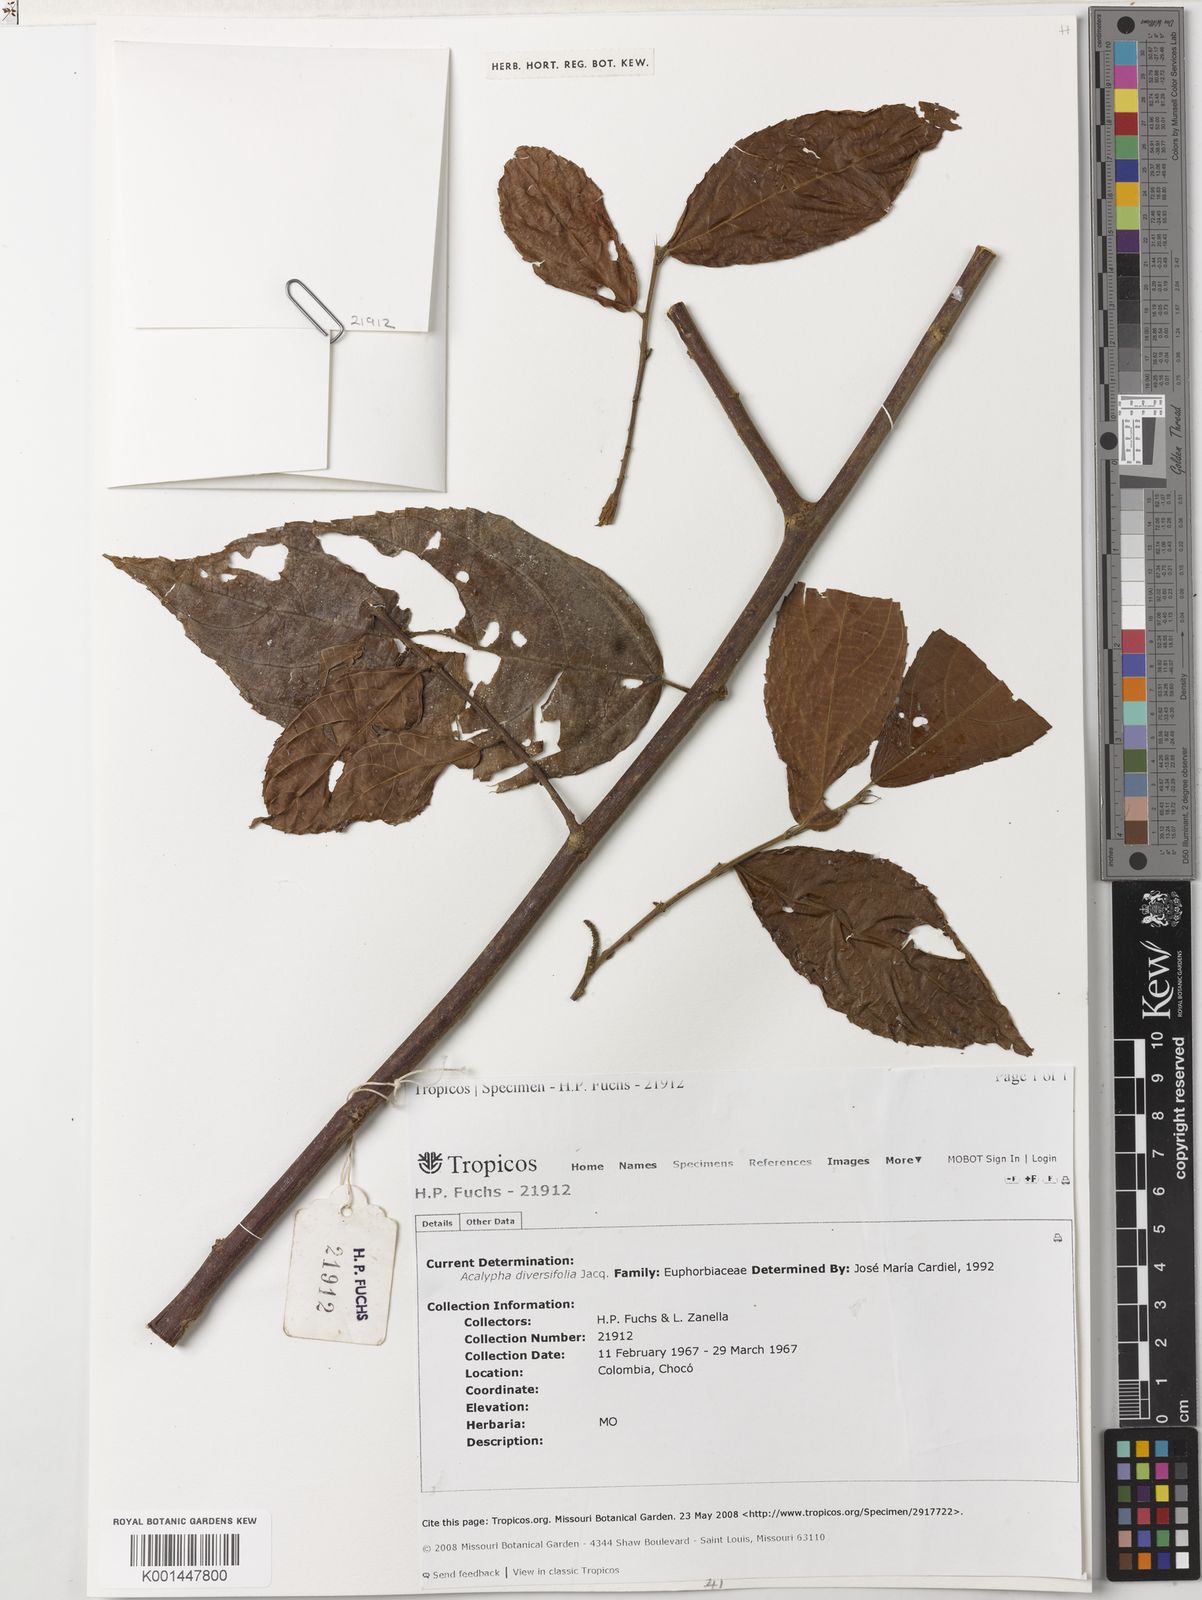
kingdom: Plantae
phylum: Tracheophyta
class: Magnoliopsida
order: Malpighiales
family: Euphorbiaceae
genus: Acalypha
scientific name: Acalypha diversifolia
